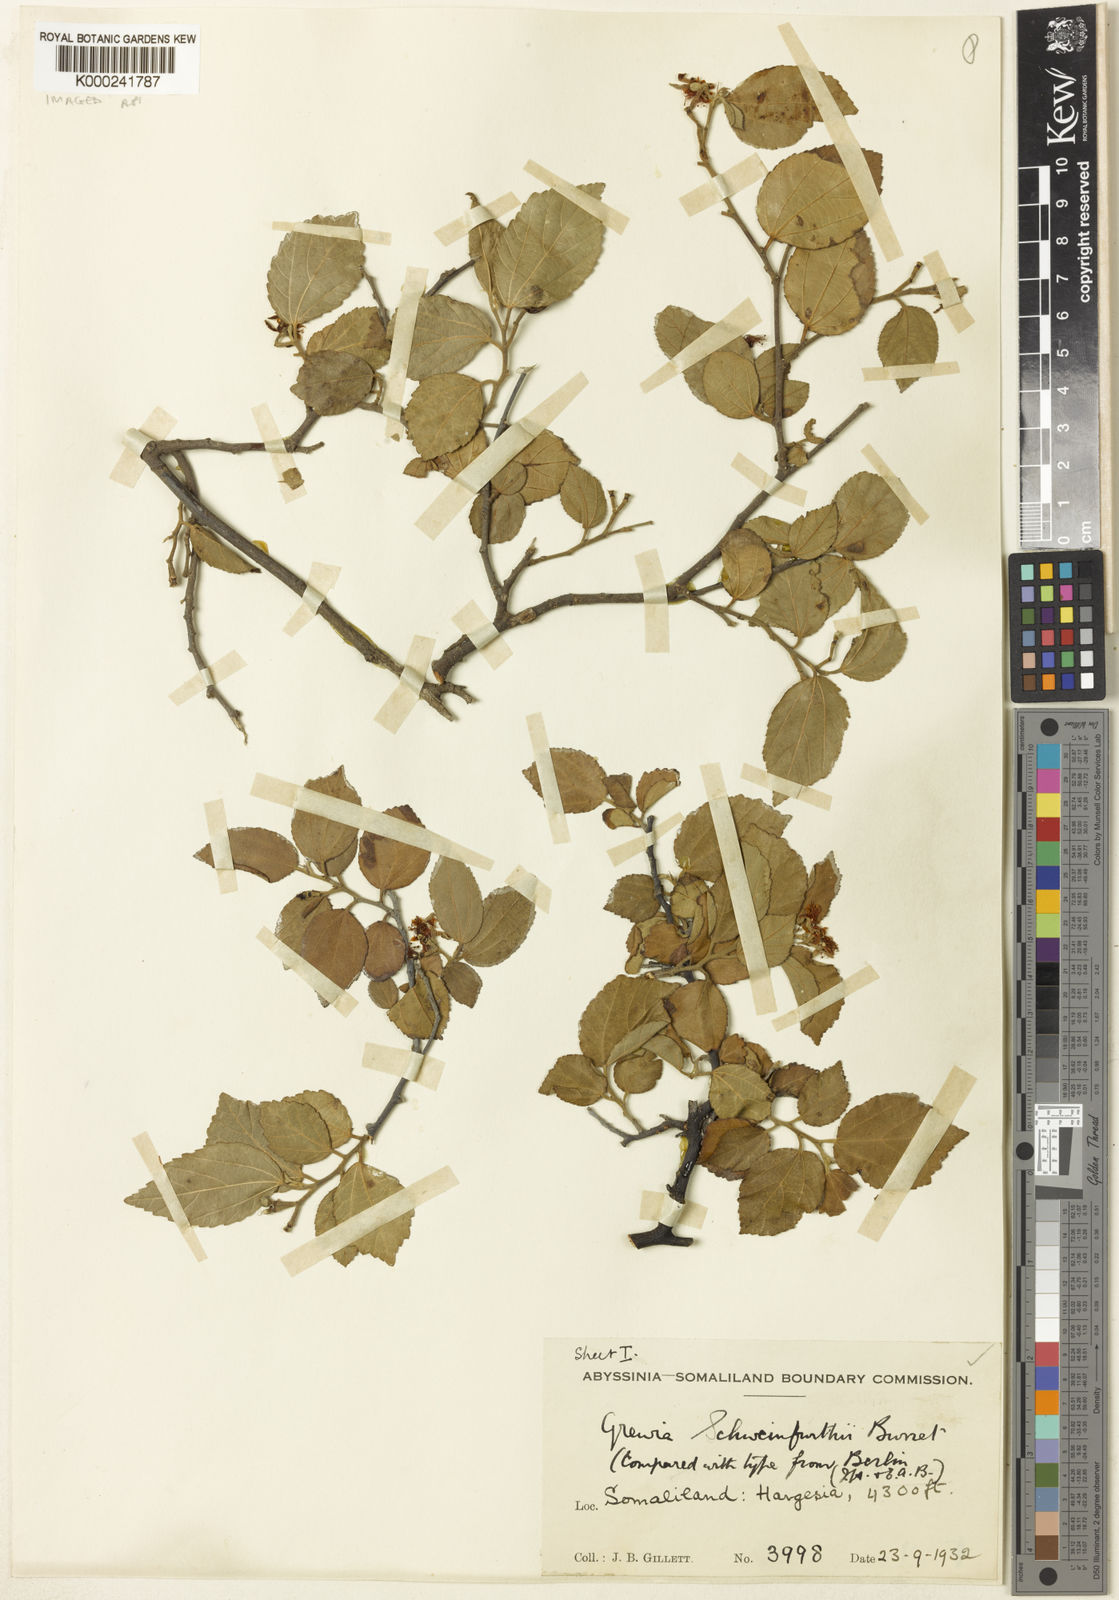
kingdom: Plantae
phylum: Tracheophyta
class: Magnoliopsida
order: Malvales
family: Malvaceae
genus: Grewia
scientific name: Grewia schweinfurthii
